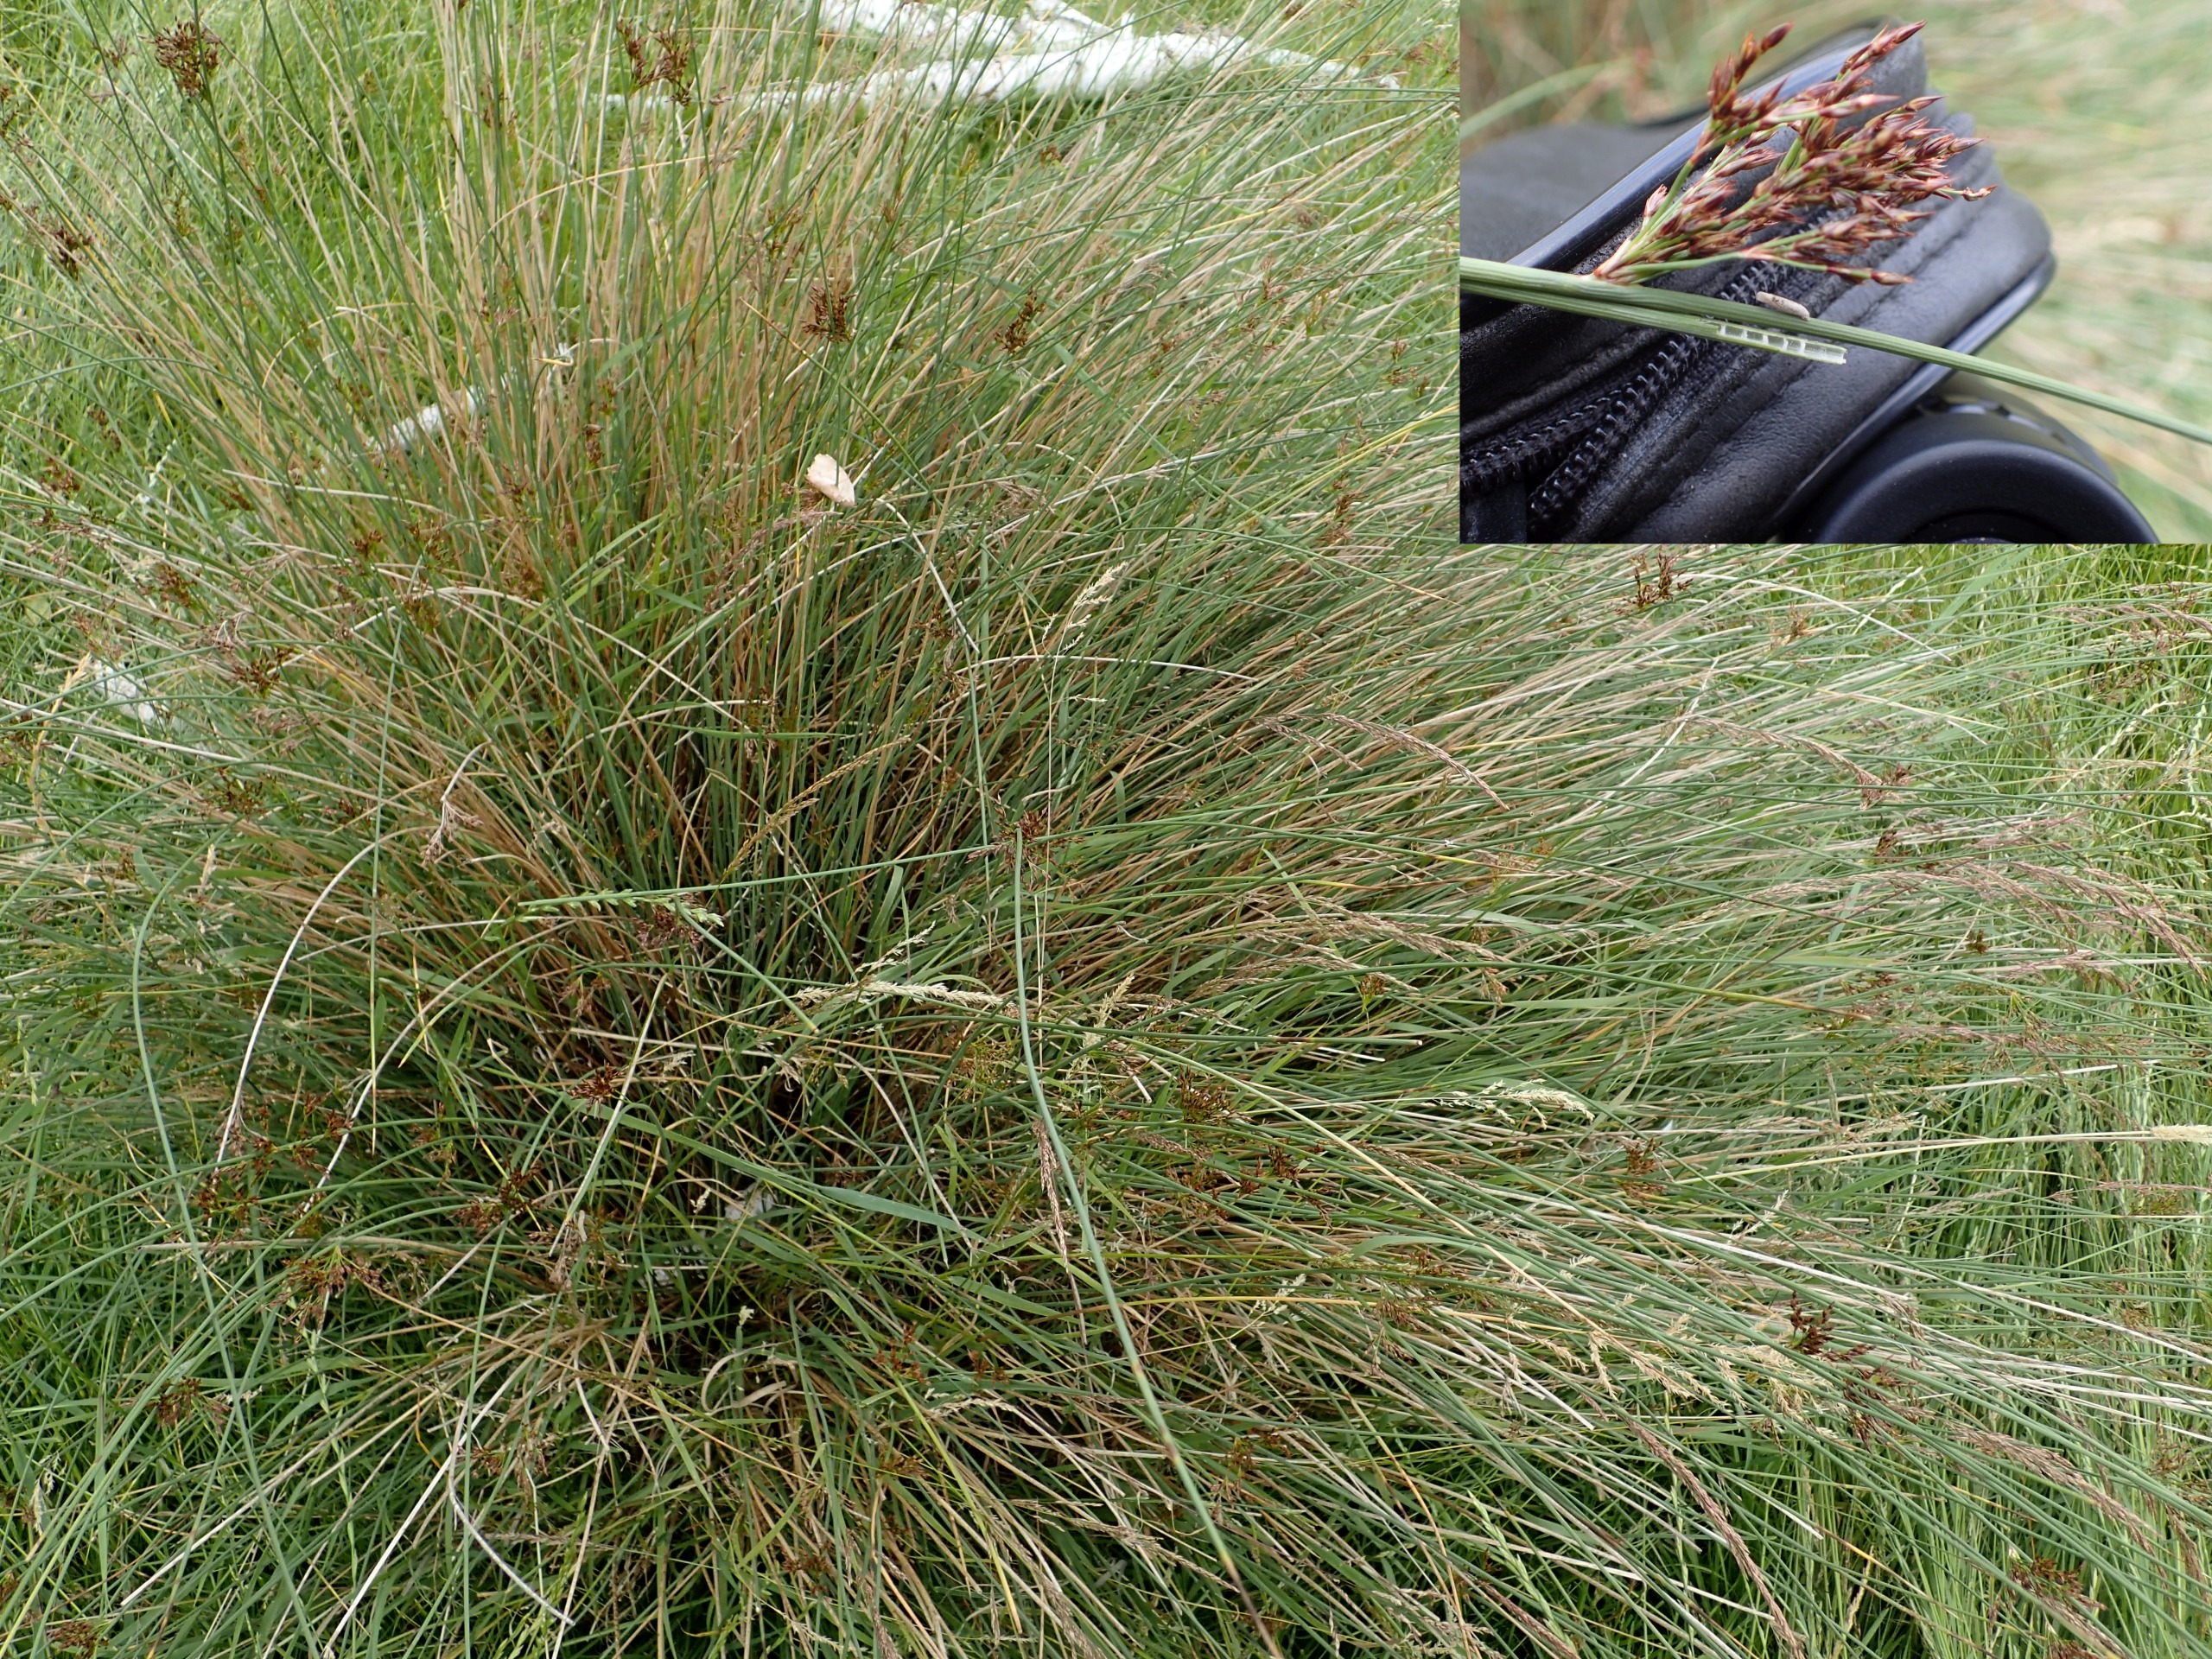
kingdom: Plantae
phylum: Tracheophyta
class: Liliopsida
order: Poales
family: Juncaceae
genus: Juncus
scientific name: Juncus inflexus
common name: Blågrå siv
